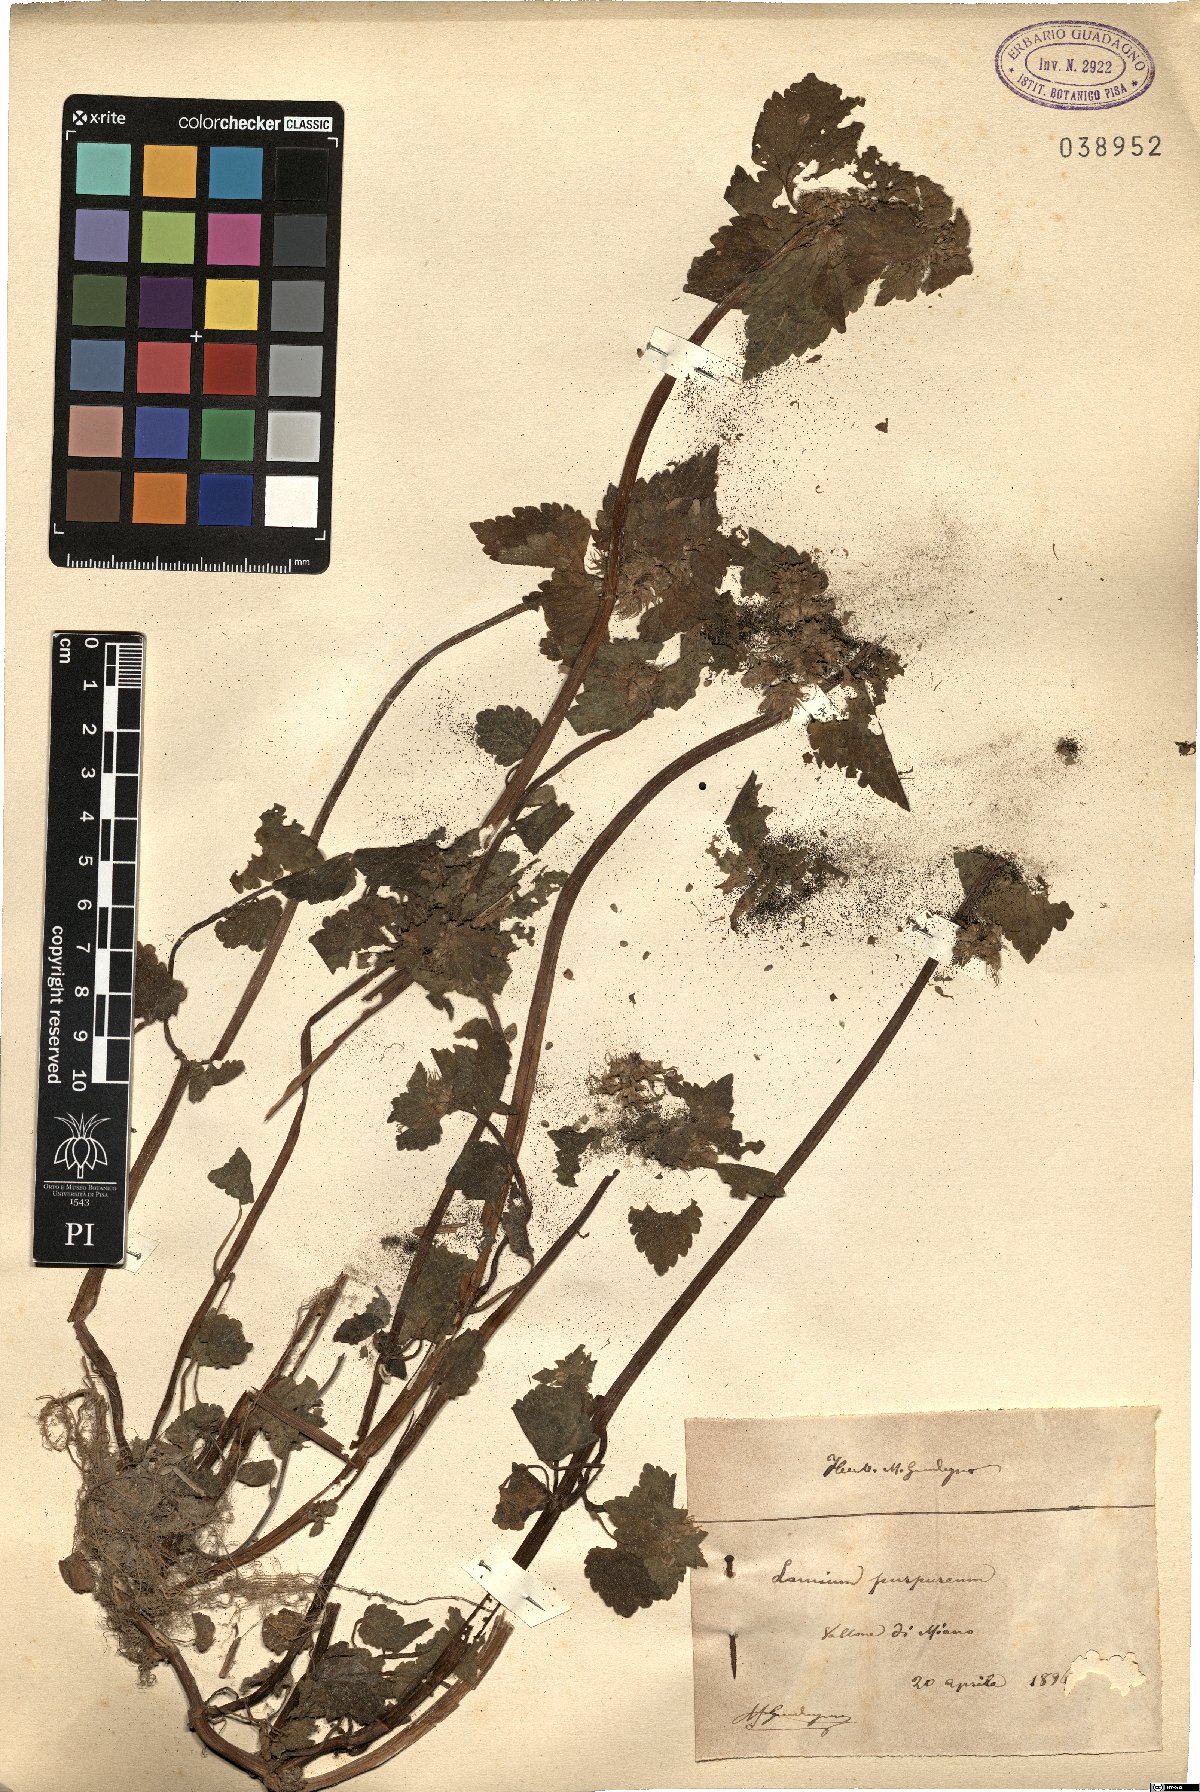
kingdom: Plantae
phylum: Tracheophyta
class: Magnoliopsida
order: Lamiales
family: Lamiaceae
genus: Lamium
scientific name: Lamium purpureum
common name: Red dead-nettle
